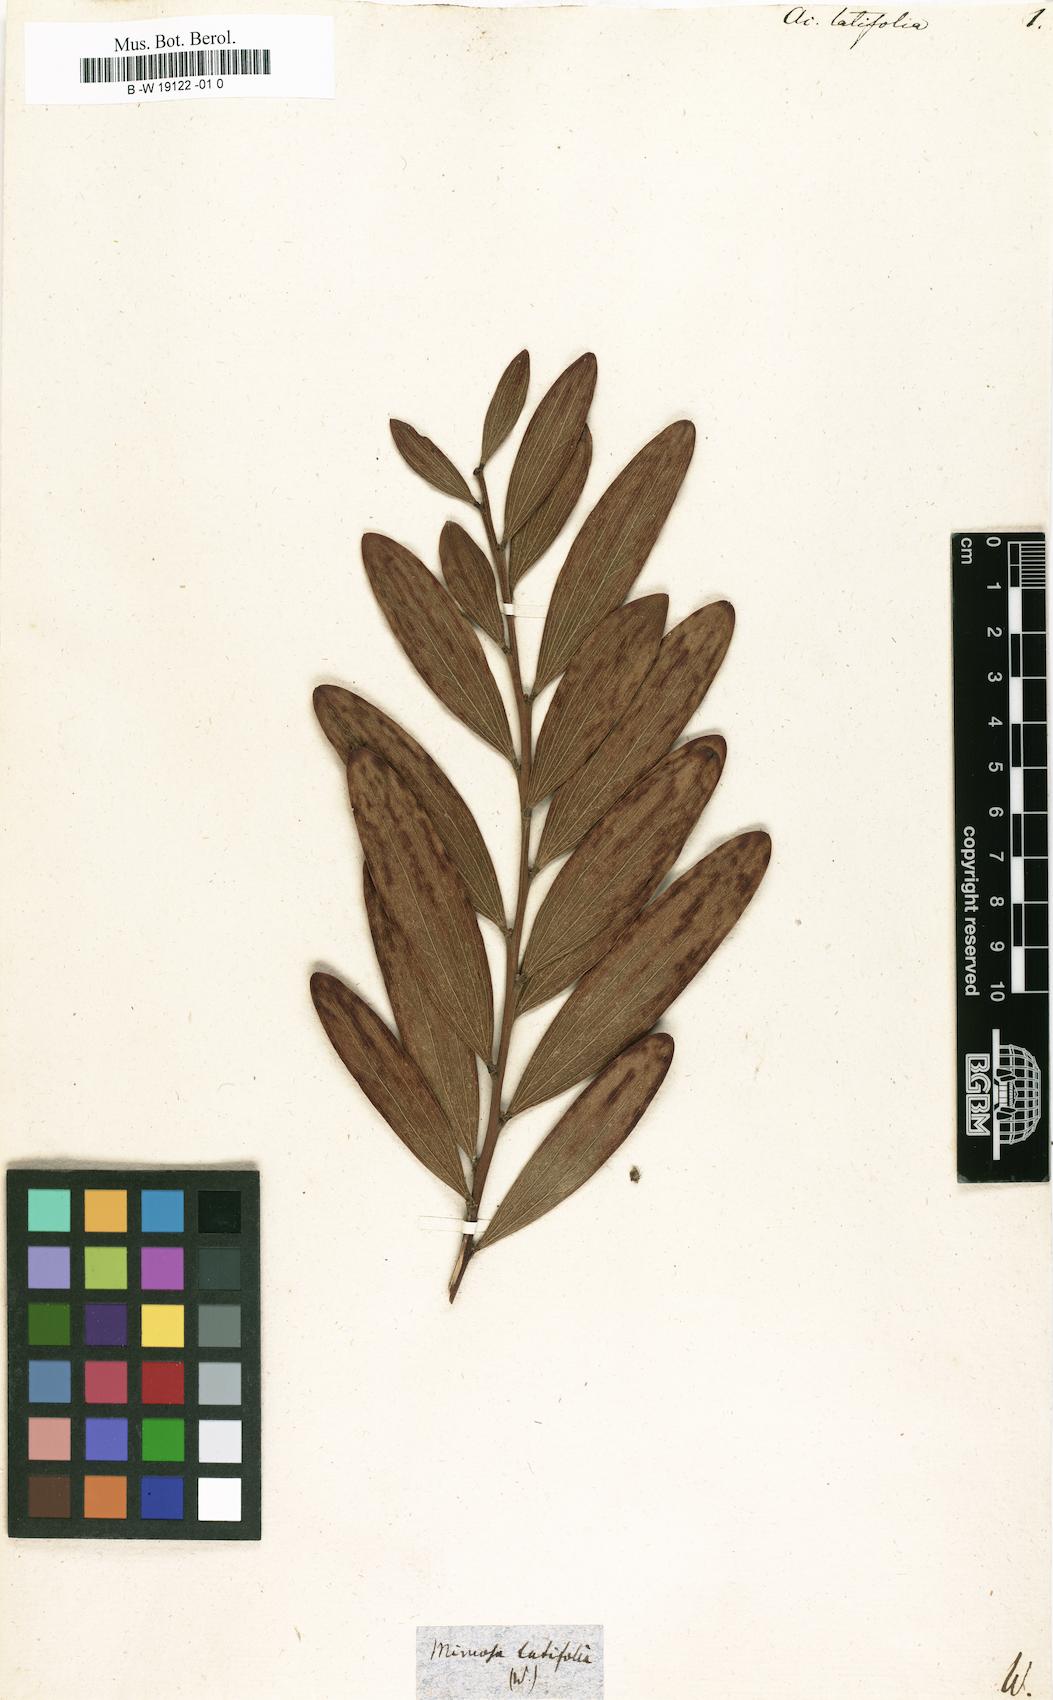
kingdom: Plantae
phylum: Tracheophyta
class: Magnoliopsida
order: Fabales
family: Fabaceae
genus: Acacia
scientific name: Acacia latifolia
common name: Broadleaf acacia
